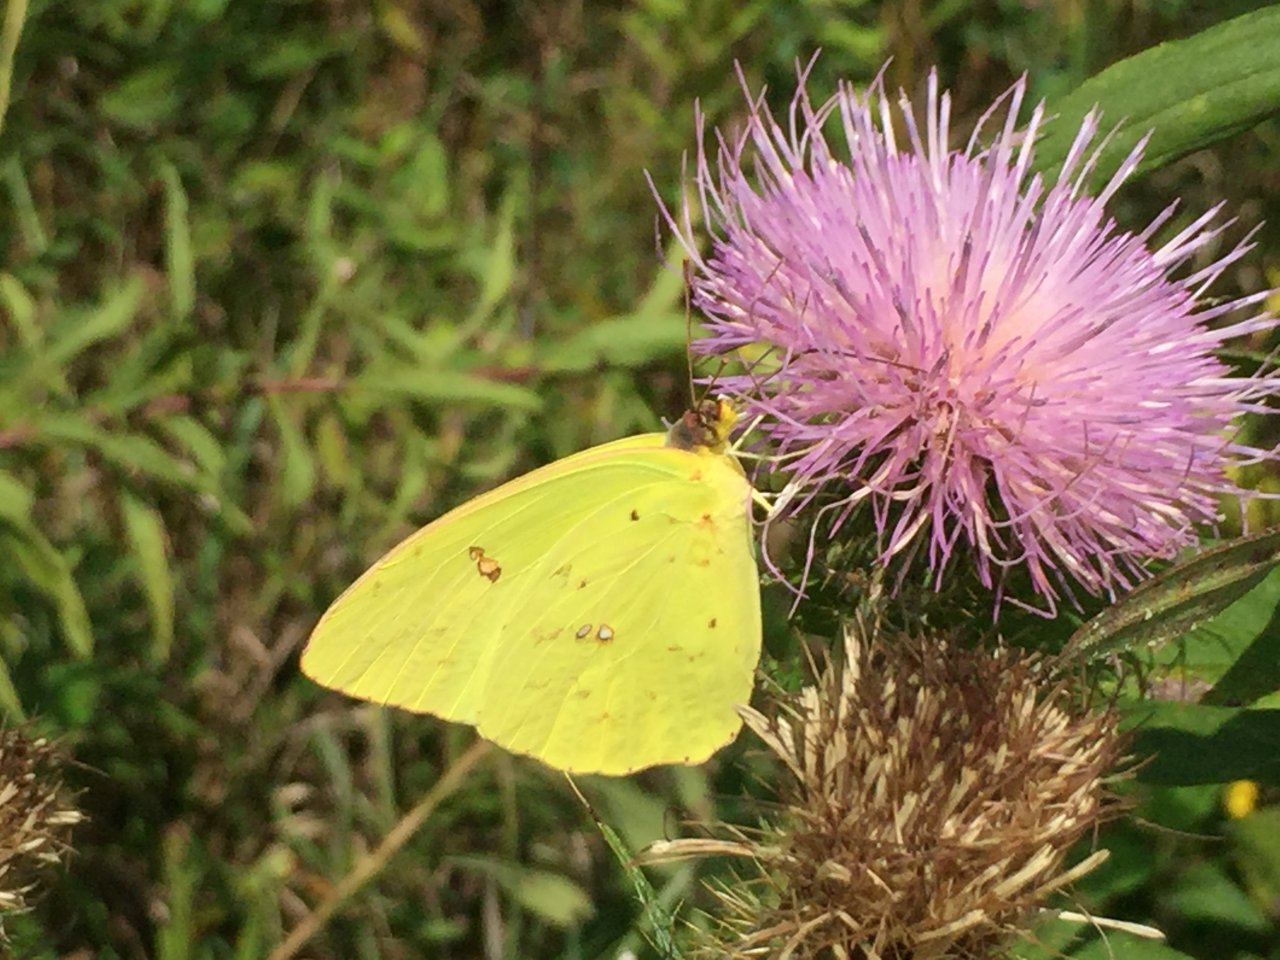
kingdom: Animalia
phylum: Arthropoda
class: Insecta
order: Lepidoptera
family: Pieridae
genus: Phoebis
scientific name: Phoebis sennae
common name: Cloudless Sulphur
